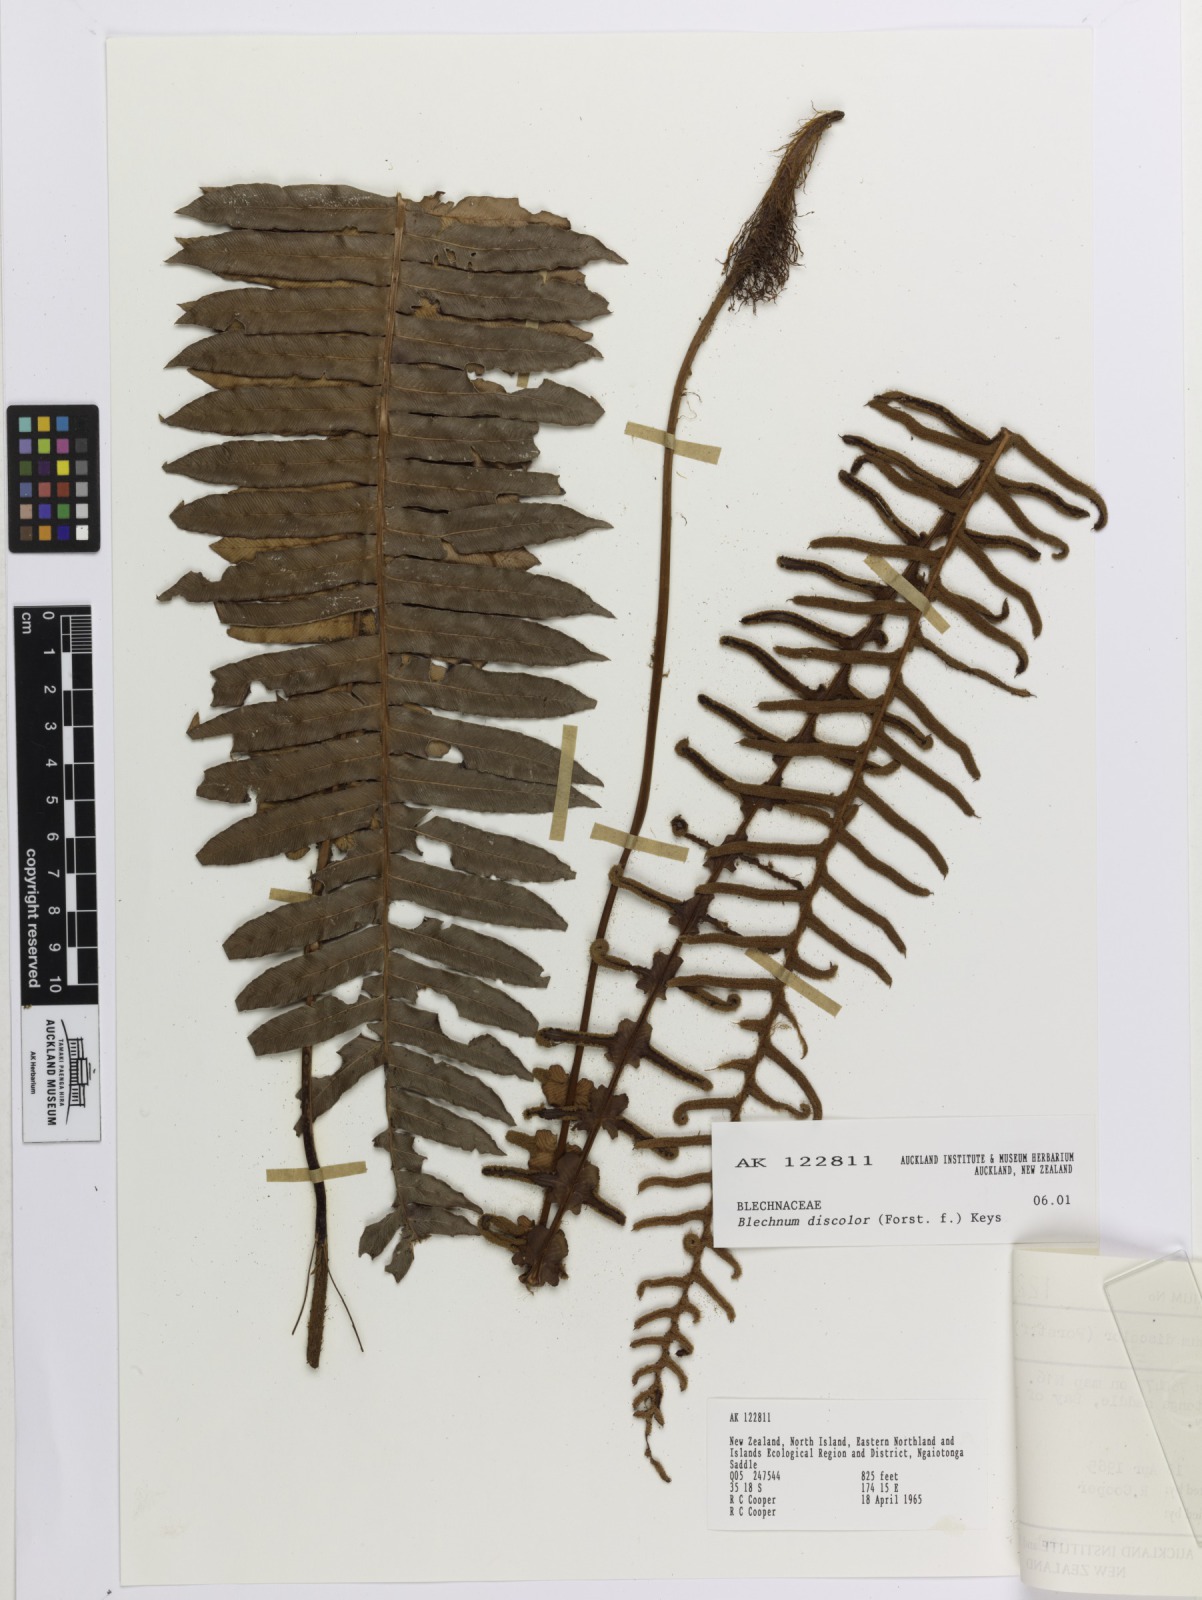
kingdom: Plantae
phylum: Tracheophyta
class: Polypodiopsida
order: Polypodiales
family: Blechnaceae
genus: Lomaria
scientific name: Lomaria discolor
